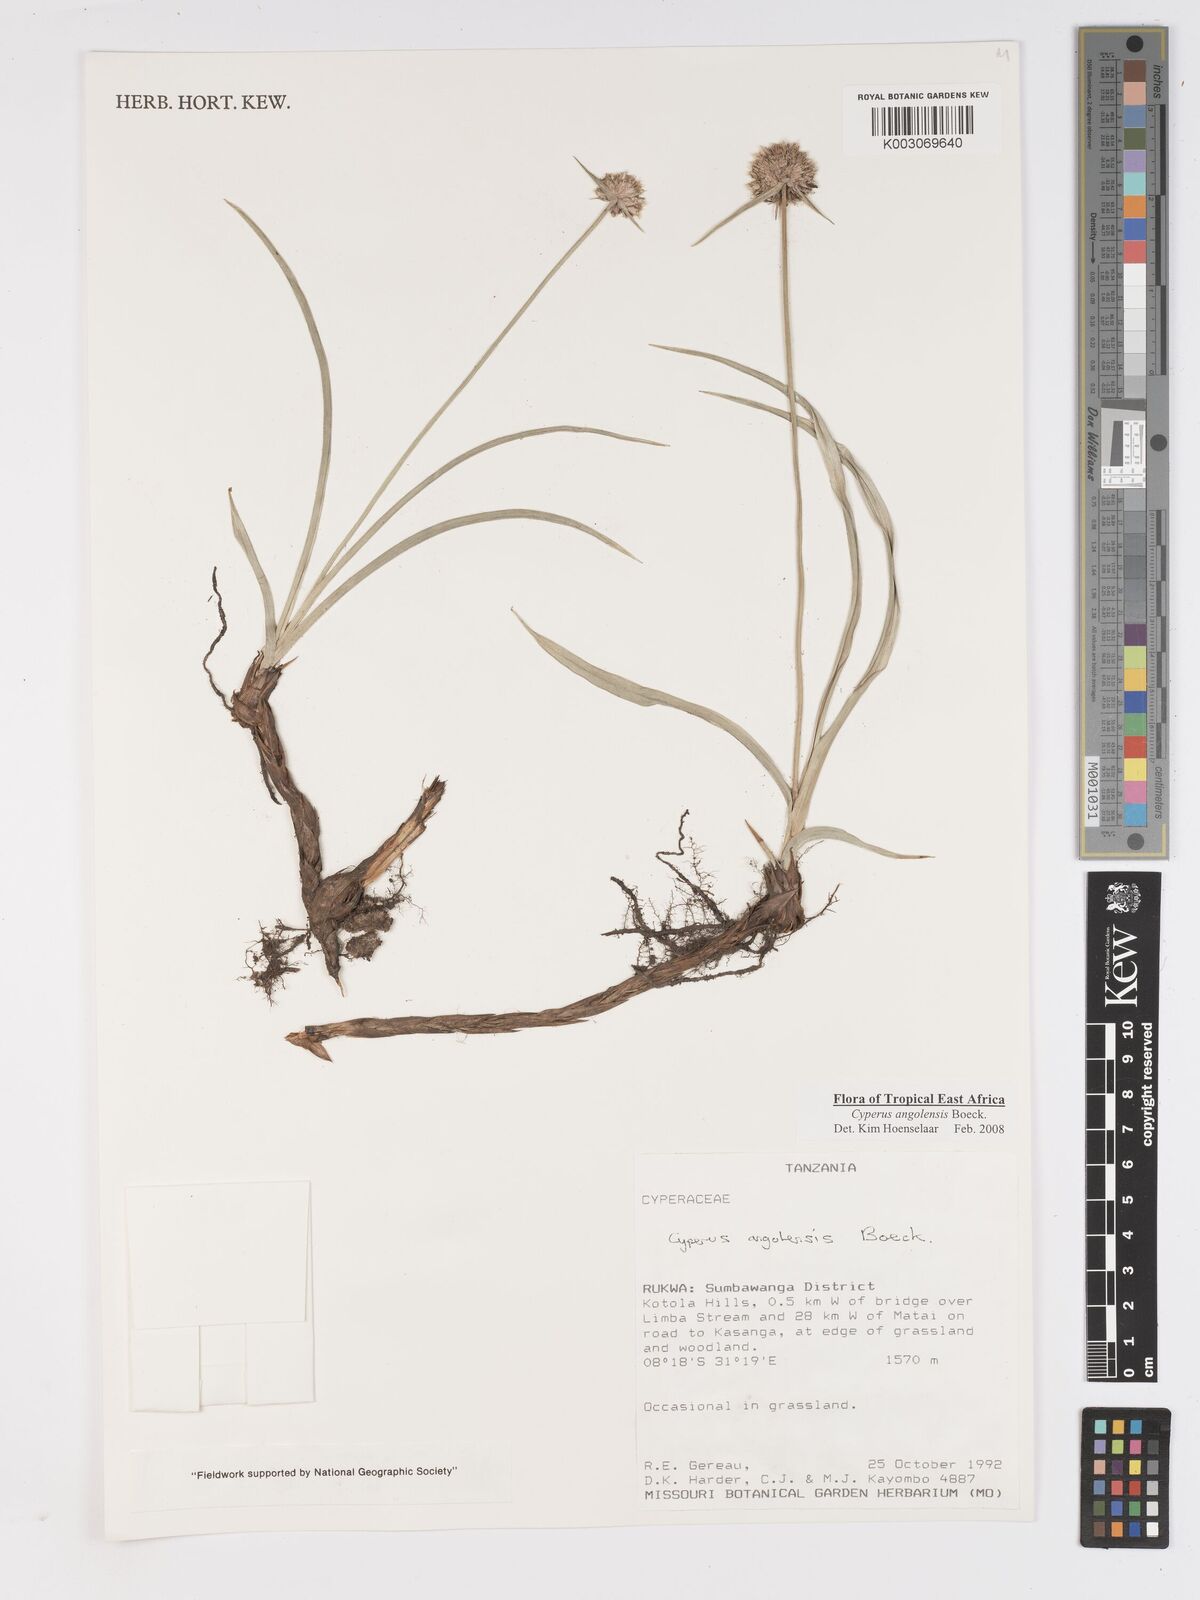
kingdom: Plantae
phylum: Tracheophyta
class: Liliopsida
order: Poales
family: Cyperaceae
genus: Cyperus
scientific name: Cyperus angolensis
